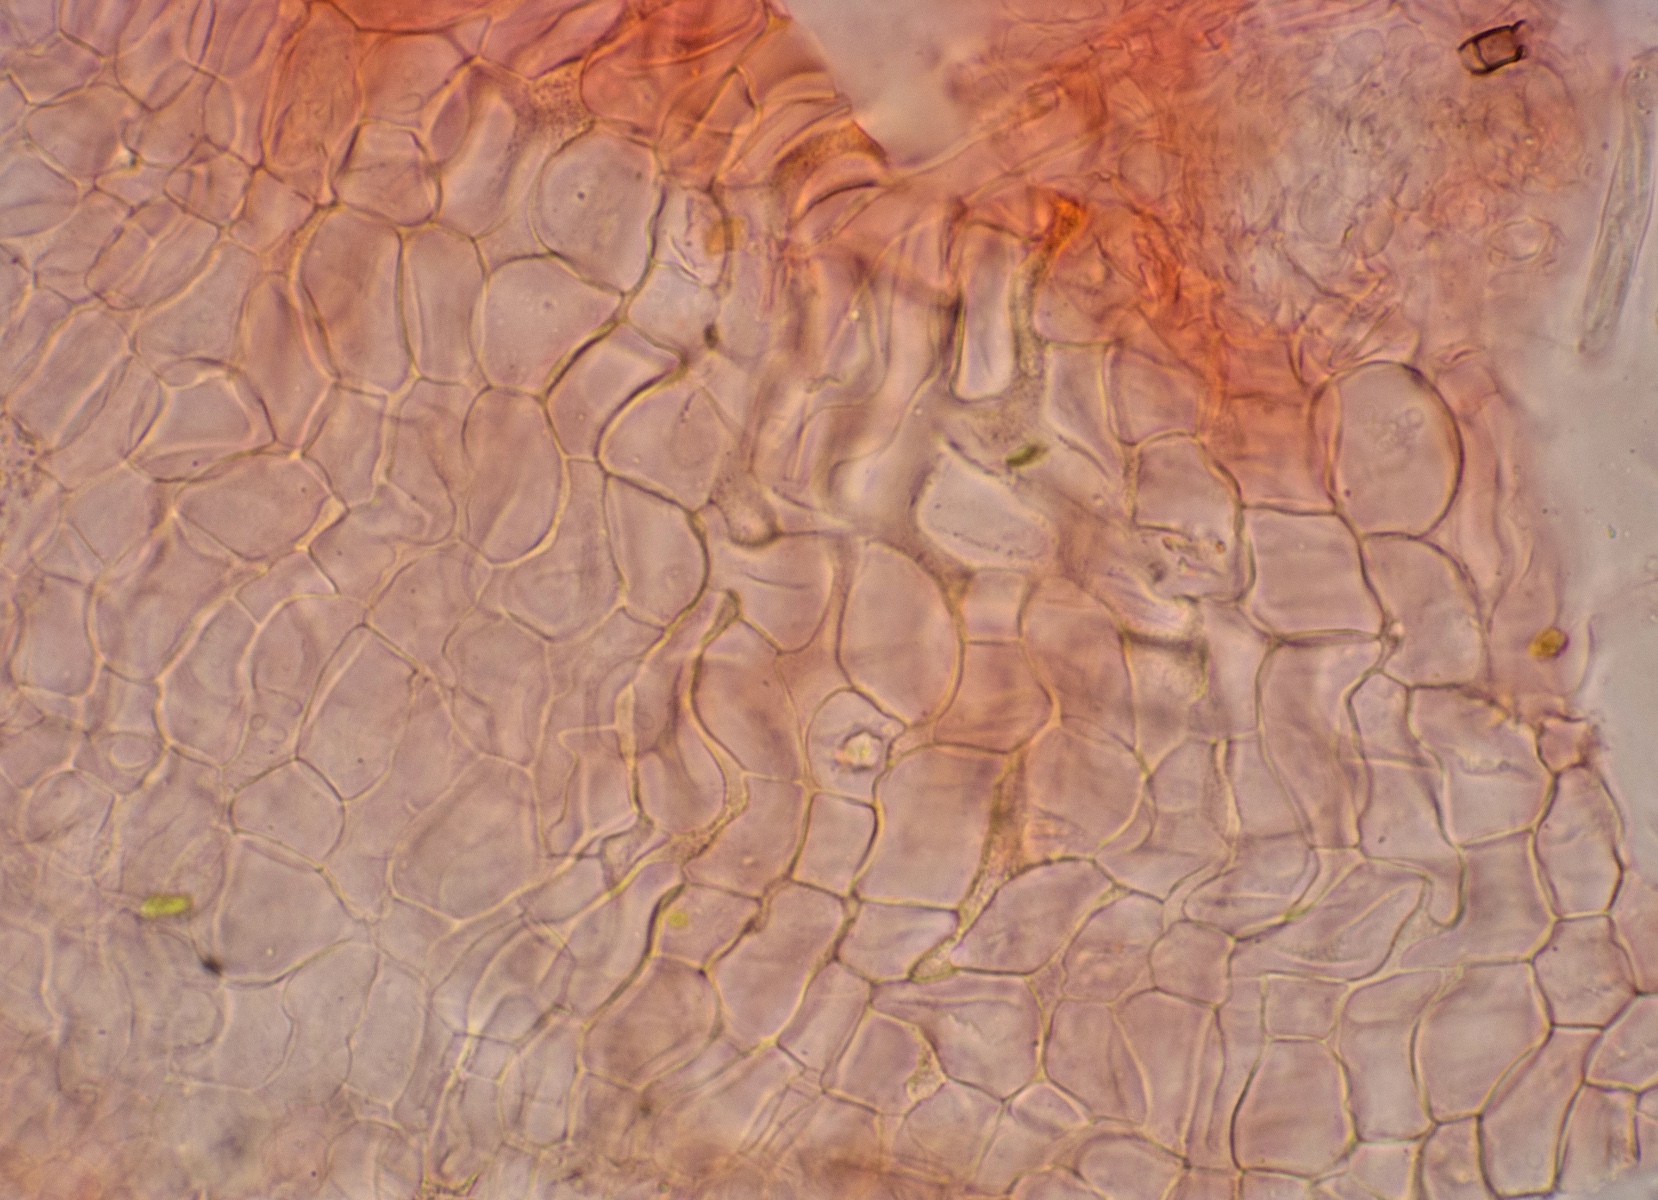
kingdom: Fungi
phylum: Ascomycota
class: Orbiliomycetes
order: Orbiliales
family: Orbiliaceae
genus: Hyalorbilia
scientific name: Hyalorbilia berberidis
